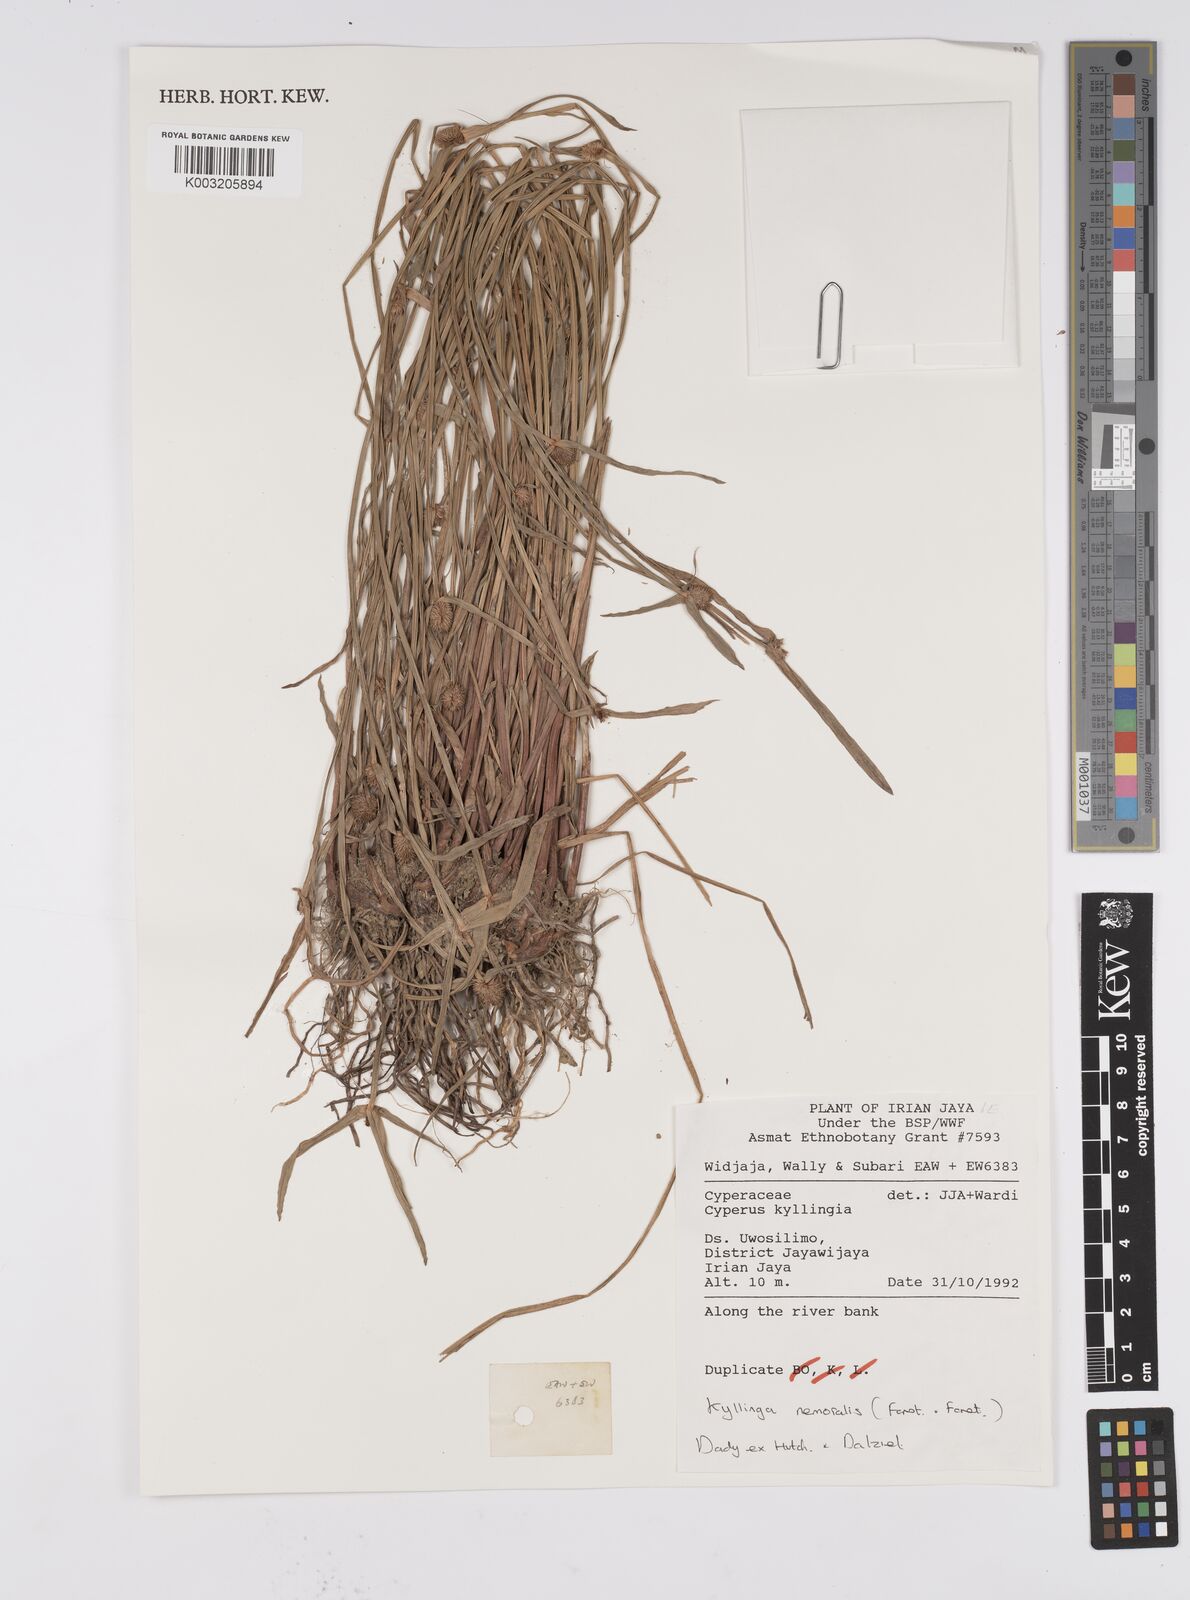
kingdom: Plantae
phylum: Tracheophyta
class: Liliopsida
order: Poales
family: Cyperaceae
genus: Cyperus
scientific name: Cyperus nemoralis
